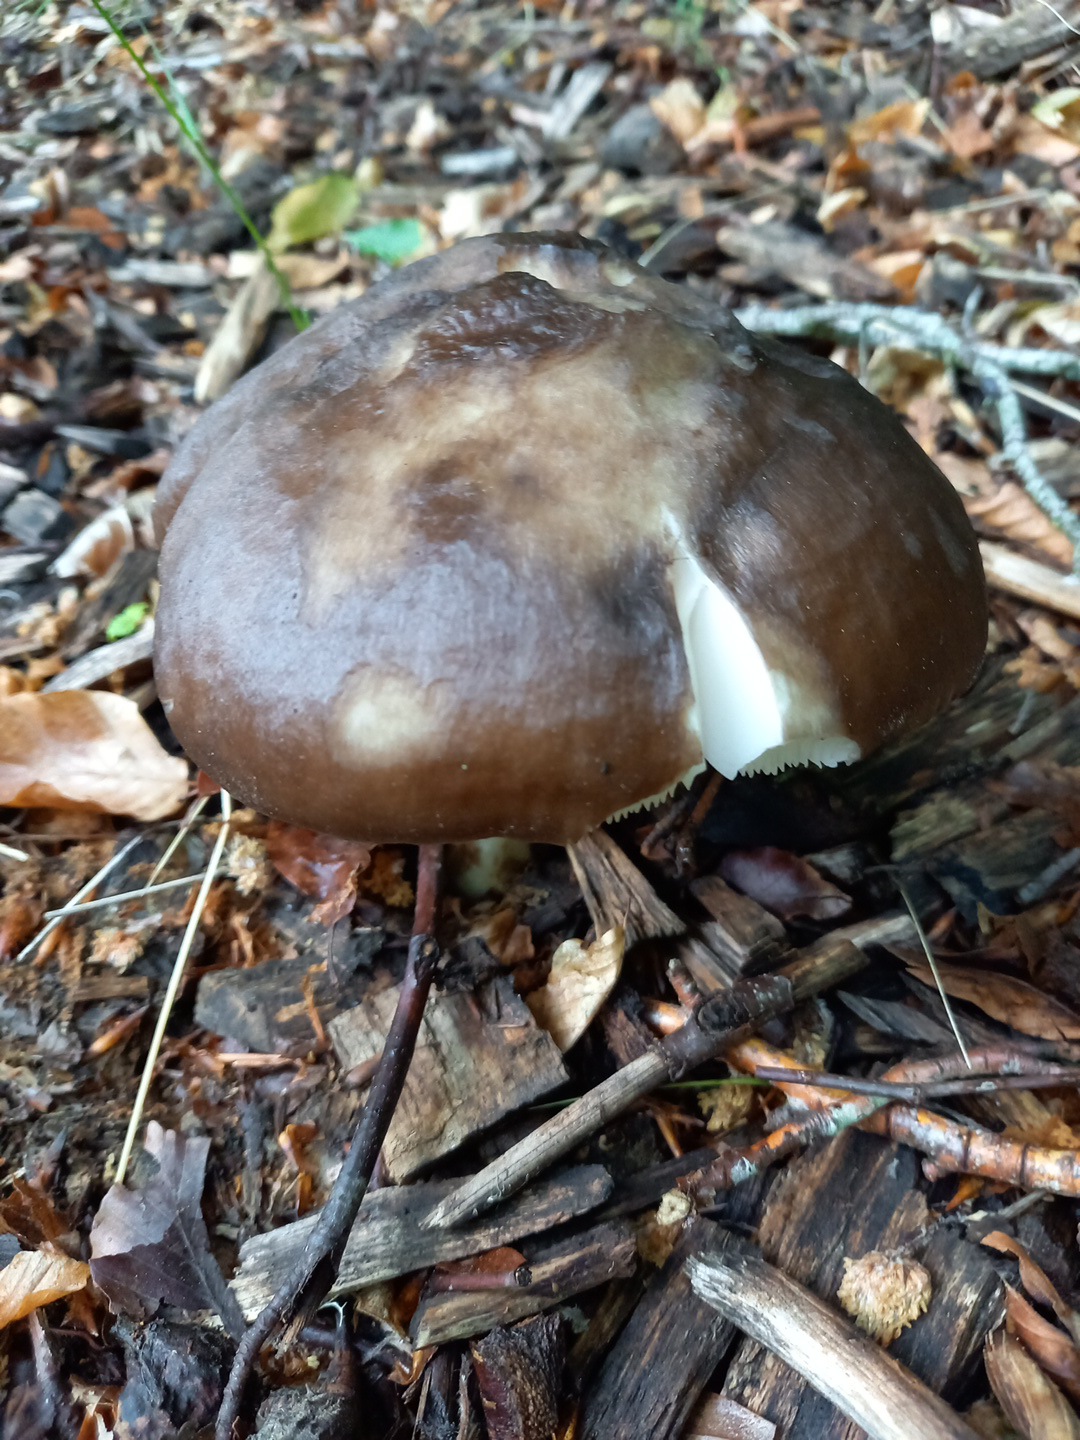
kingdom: Fungi
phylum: Basidiomycota
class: Agaricomycetes
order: Agaricales
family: Pluteaceae
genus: Pluteus
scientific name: Pluteus cervinus
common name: sodfarvet skærmhat
